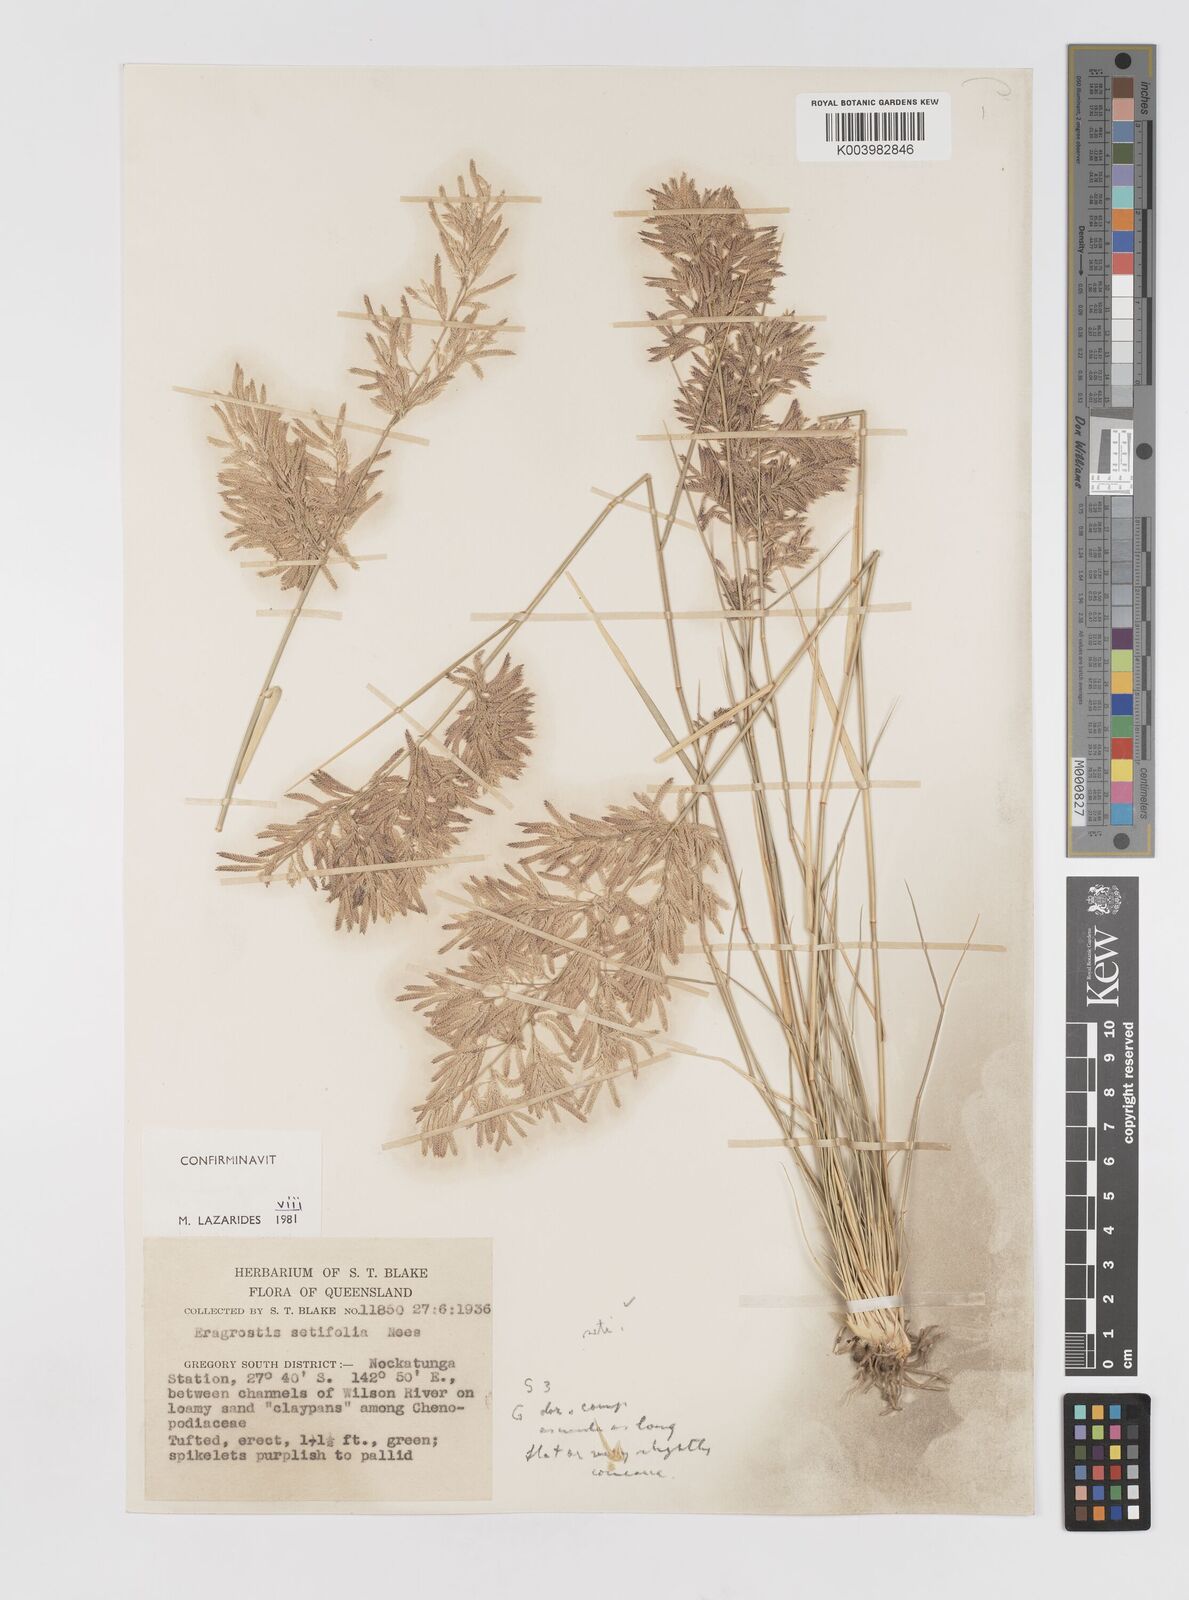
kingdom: Plantae
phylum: Tracheophyta
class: Liliopsida
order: Poales
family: Poaceae
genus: Eragrostis
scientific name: Eragrostis setifolia
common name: Bristleleaf lovegrass
